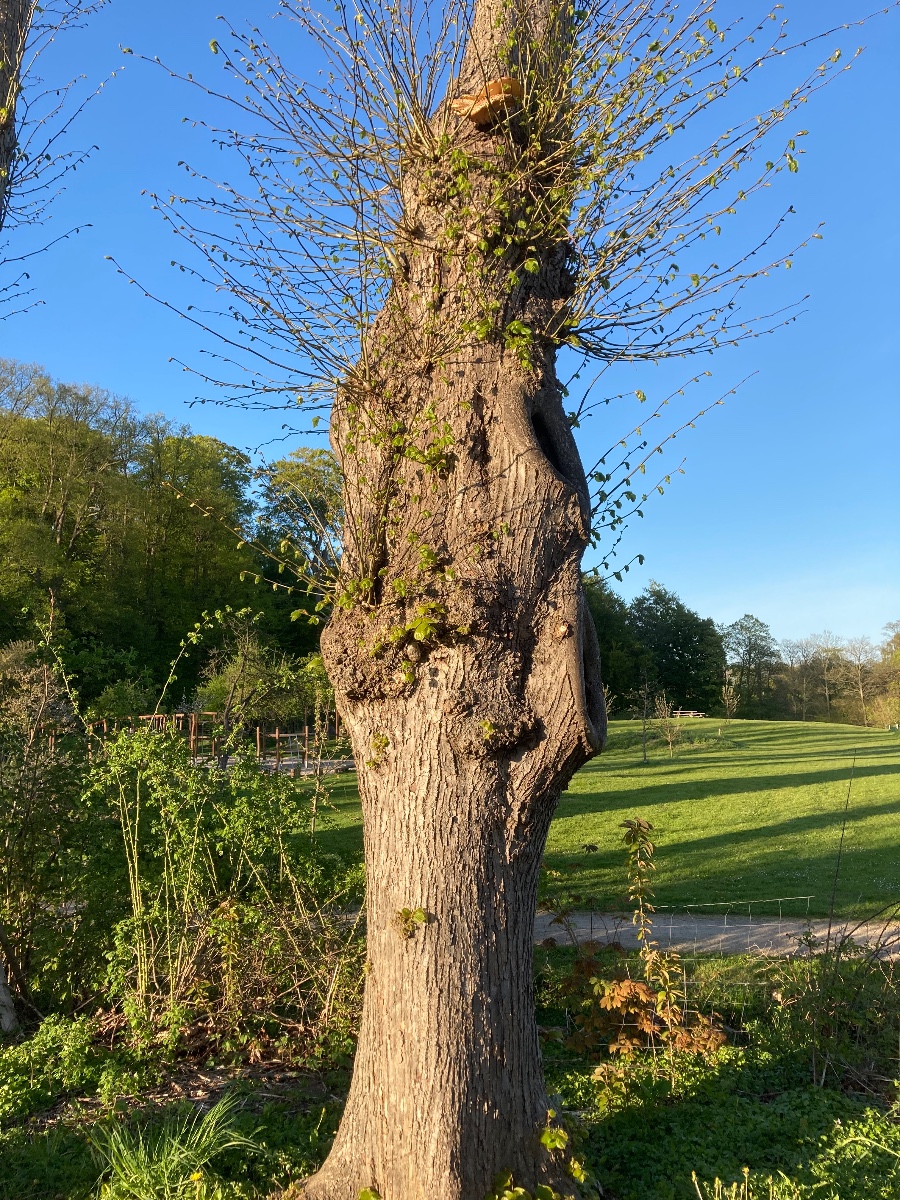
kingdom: Fungi
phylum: Basidiomycota
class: Agaricomycetes
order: Polyporales
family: Polyporaceae
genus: Cerioporus
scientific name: Cerioporus squamosus
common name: skællet stilkporesvamp
